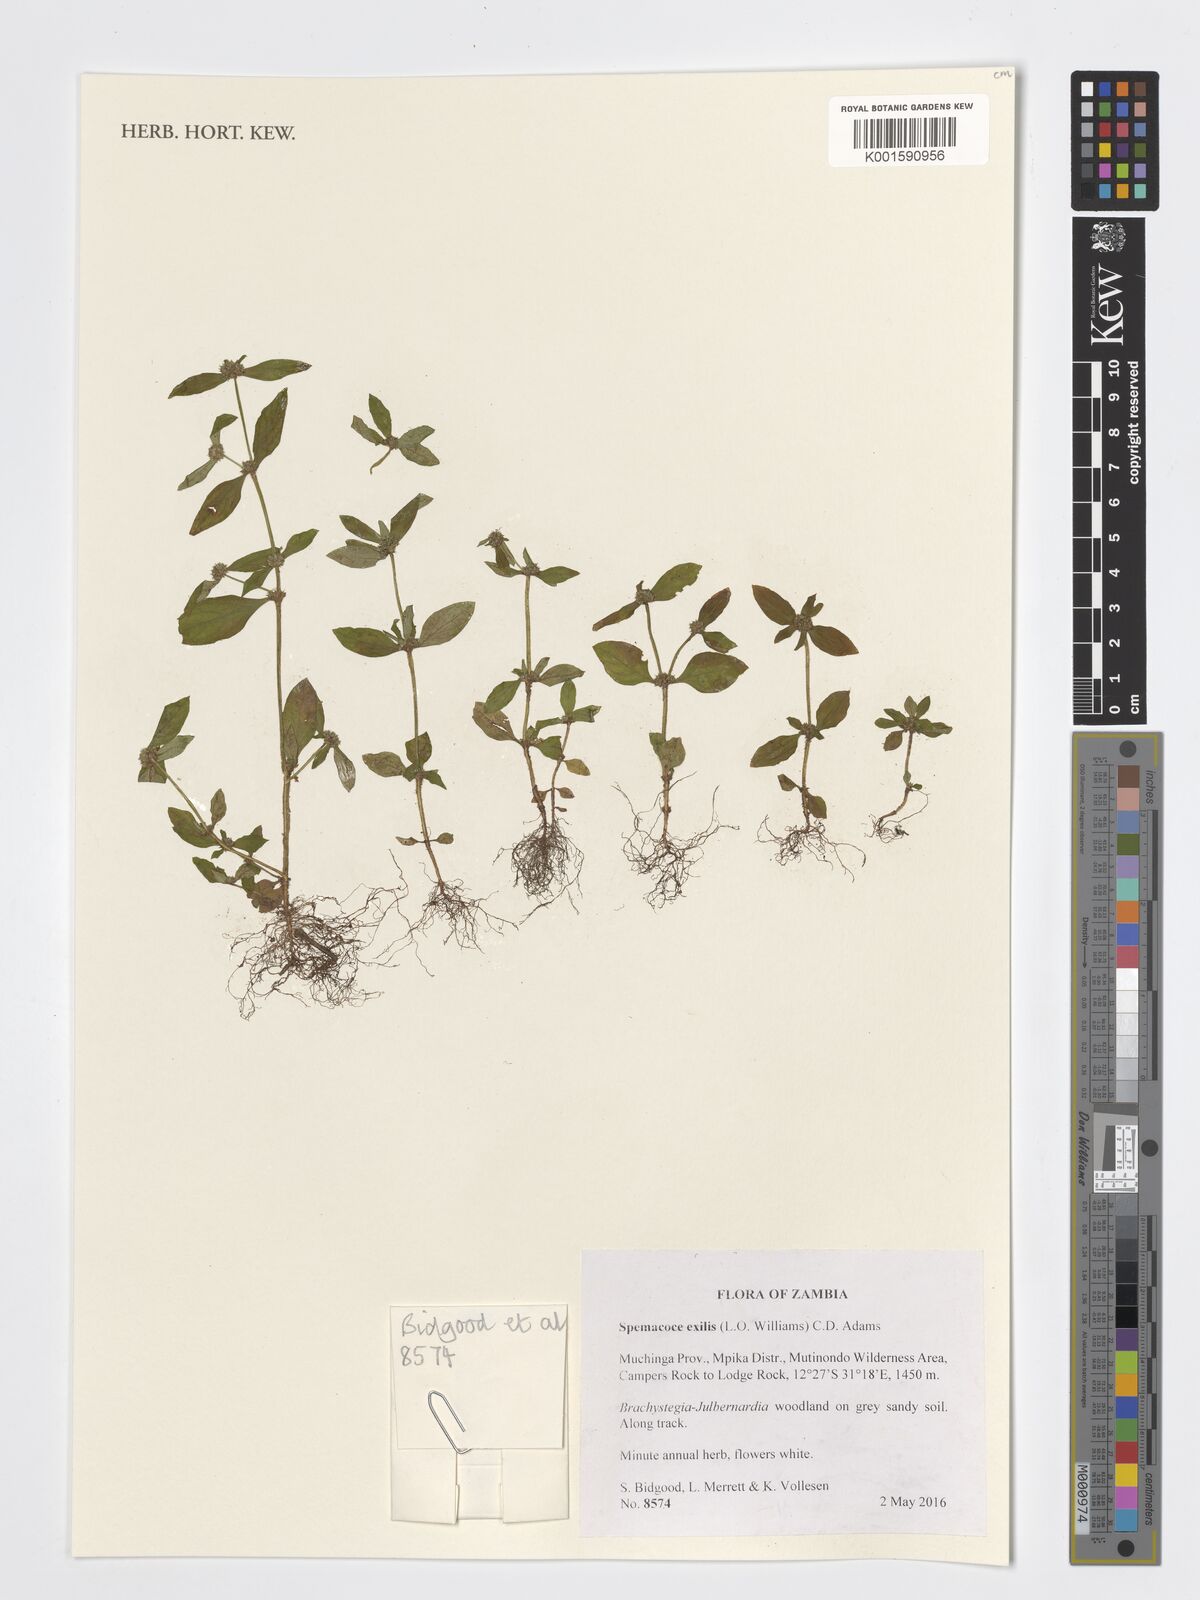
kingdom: Plantae
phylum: Tracheophyta
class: Magnoliopsida
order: Gentianales
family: Rubiaceae
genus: Spermacoce
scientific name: Spermacoce exilis
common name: Pacific false buttonweed
